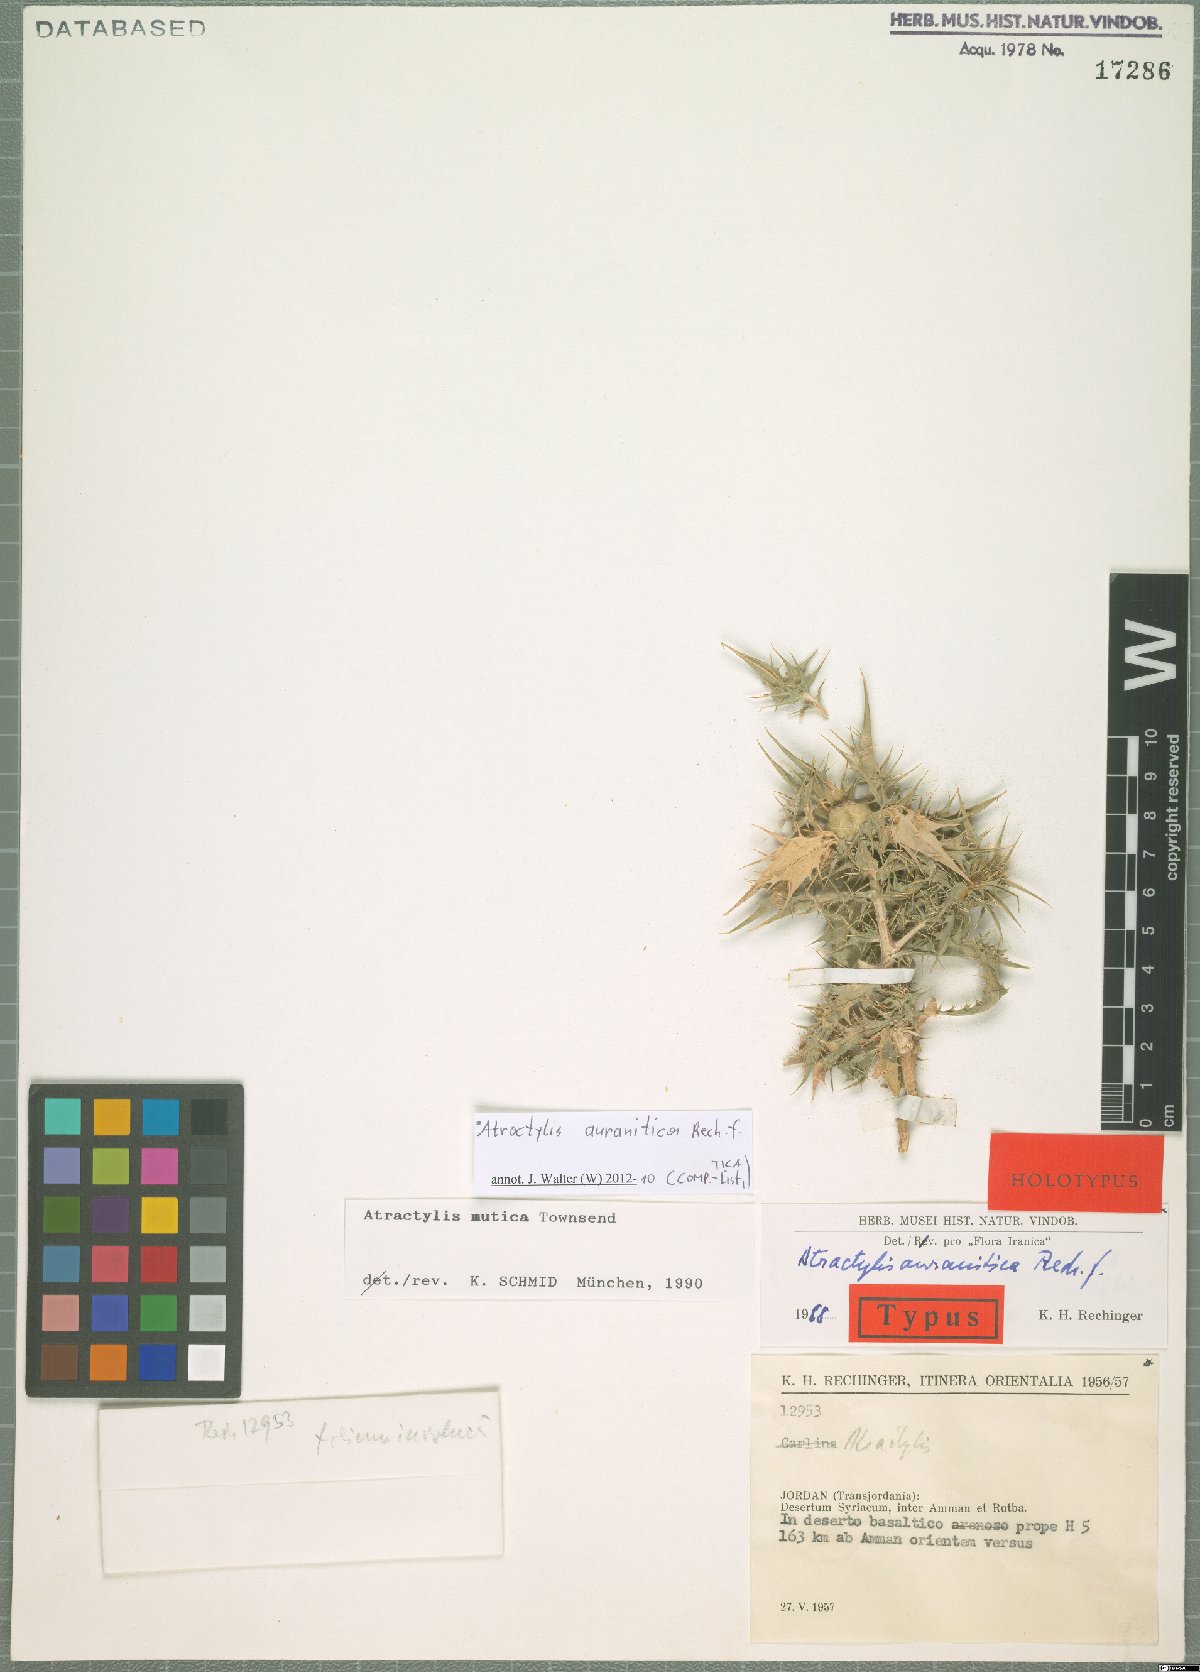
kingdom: Plantae
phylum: Tracheophyta
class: Magnoliopsida
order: Asterales
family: Asteraceae
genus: Atractylis
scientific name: Atractylis auranitica
